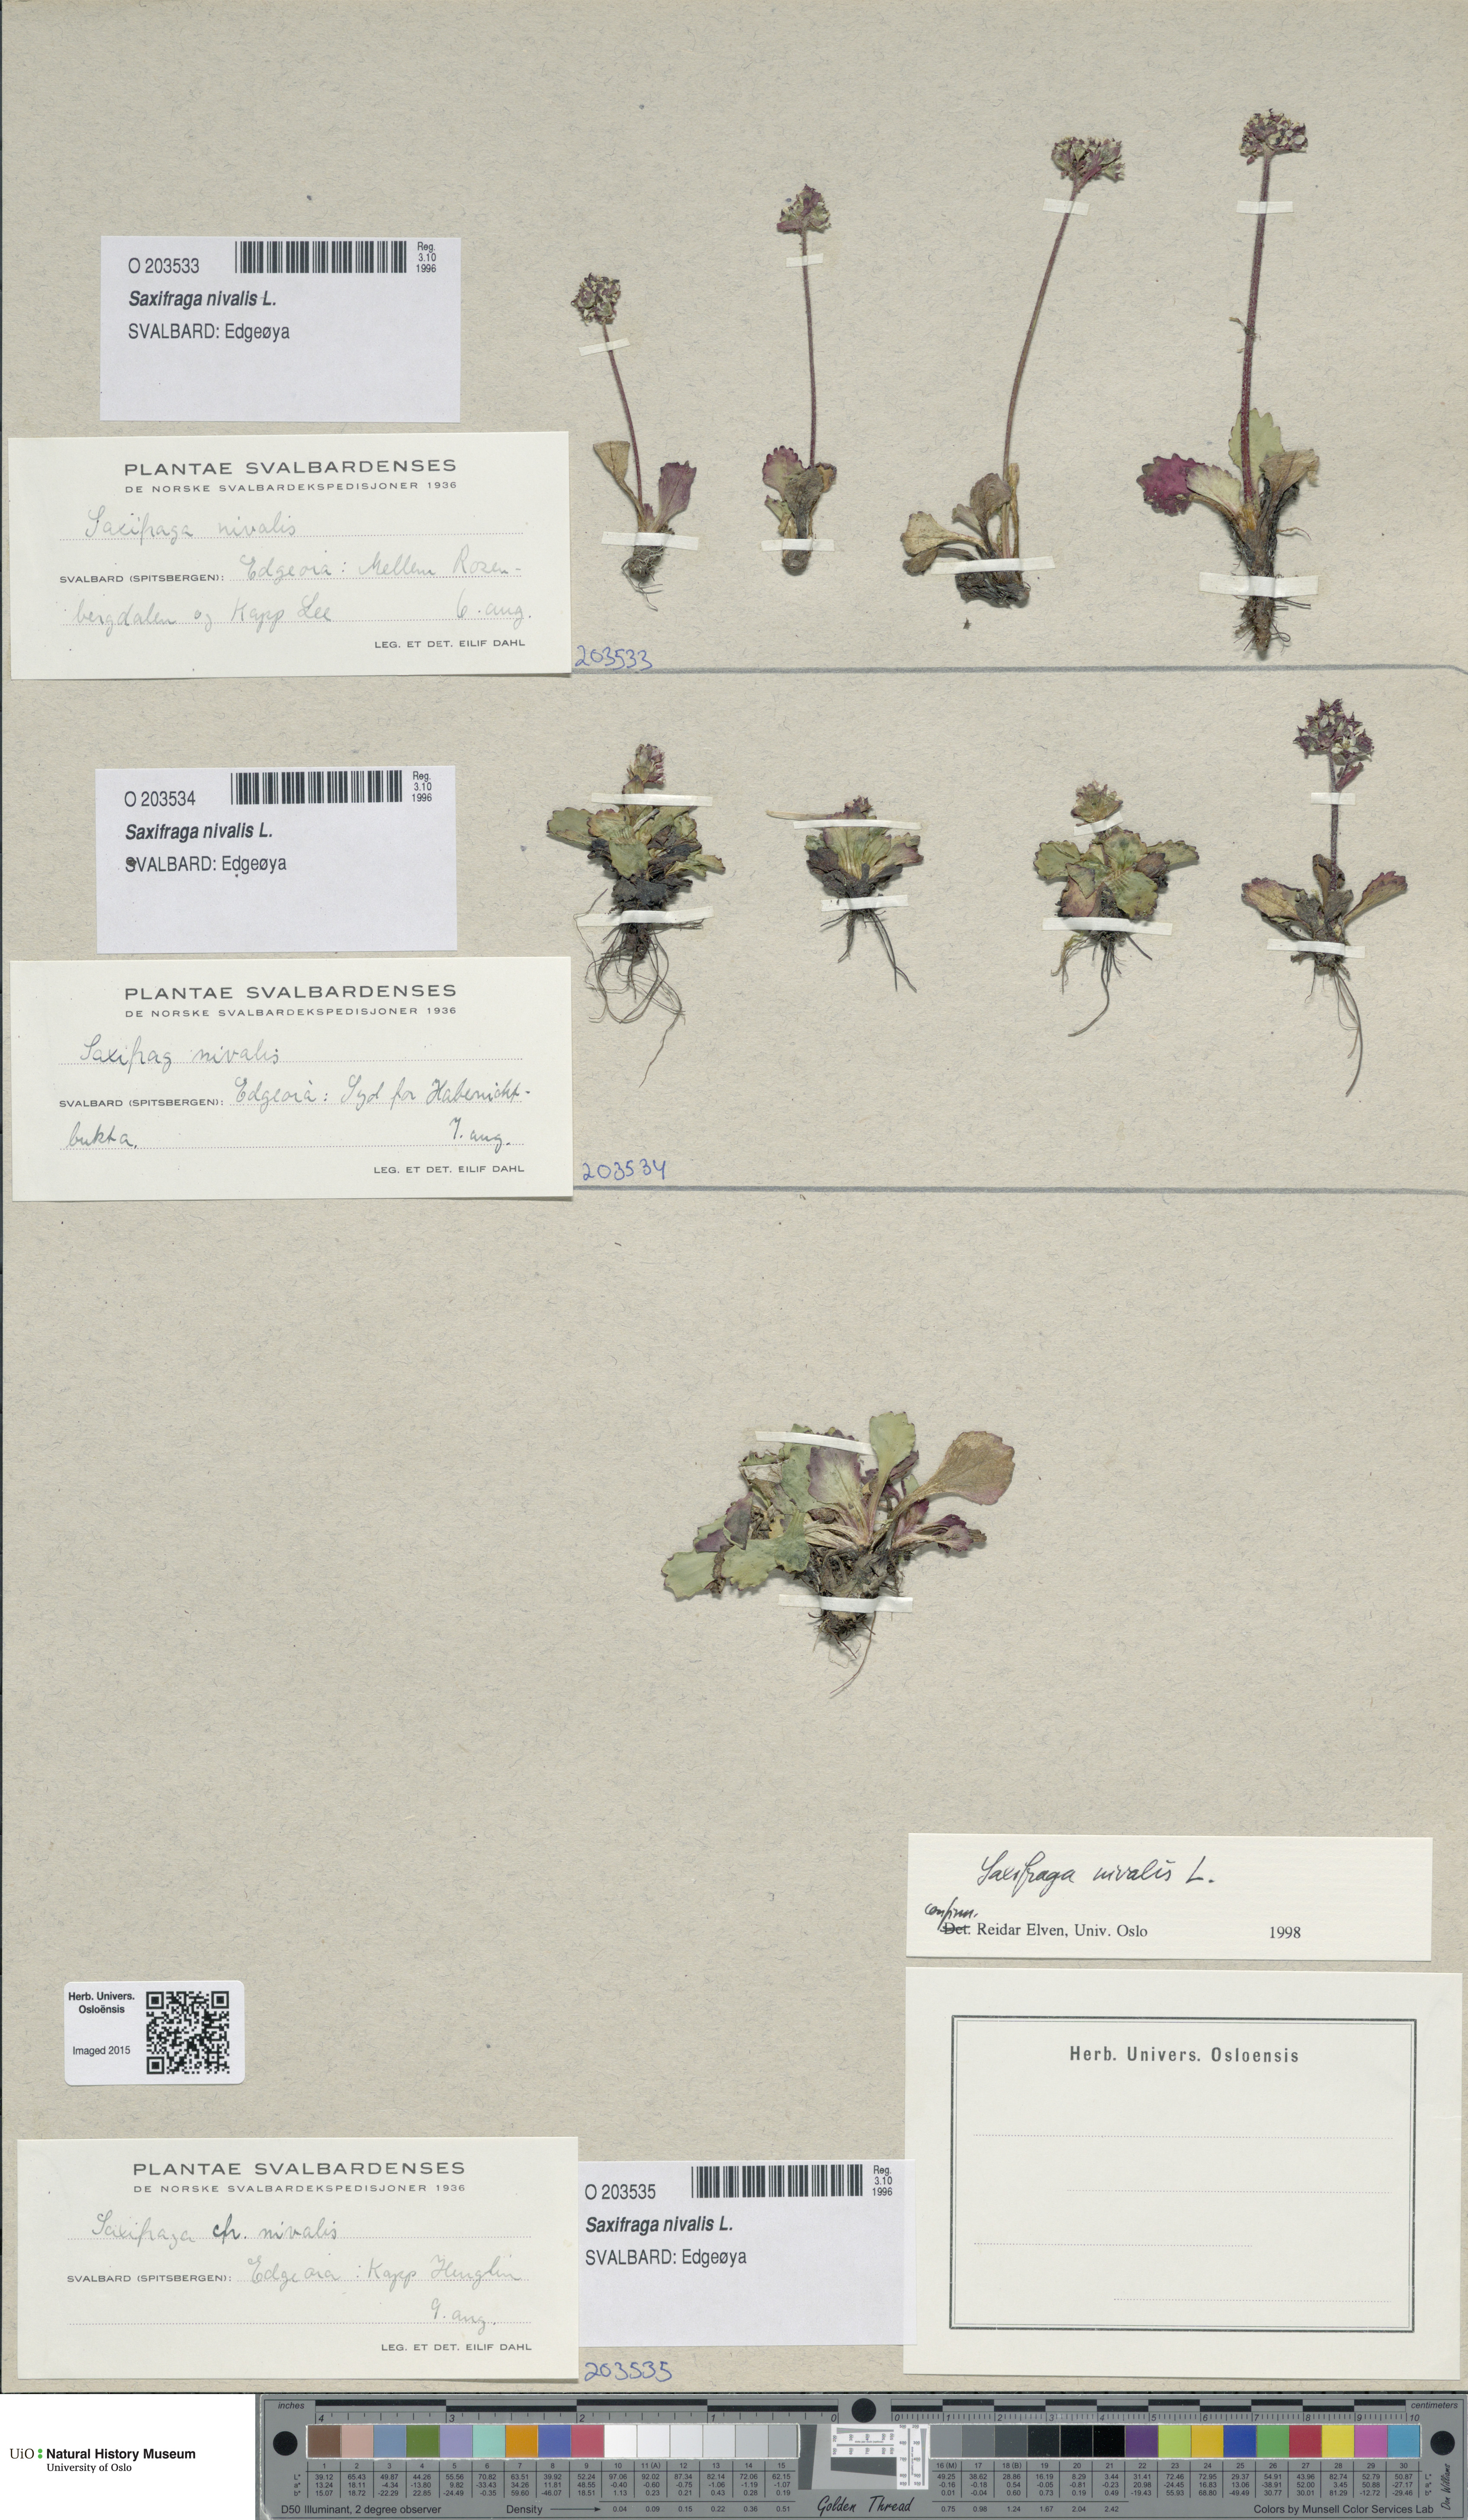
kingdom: Plantae
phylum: Tracheophyta
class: Magnoliopsida
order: Saxifragales
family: Saxifragaceae
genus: Micranthes
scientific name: Micranthes nivalis
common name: Alpine saxifrage
